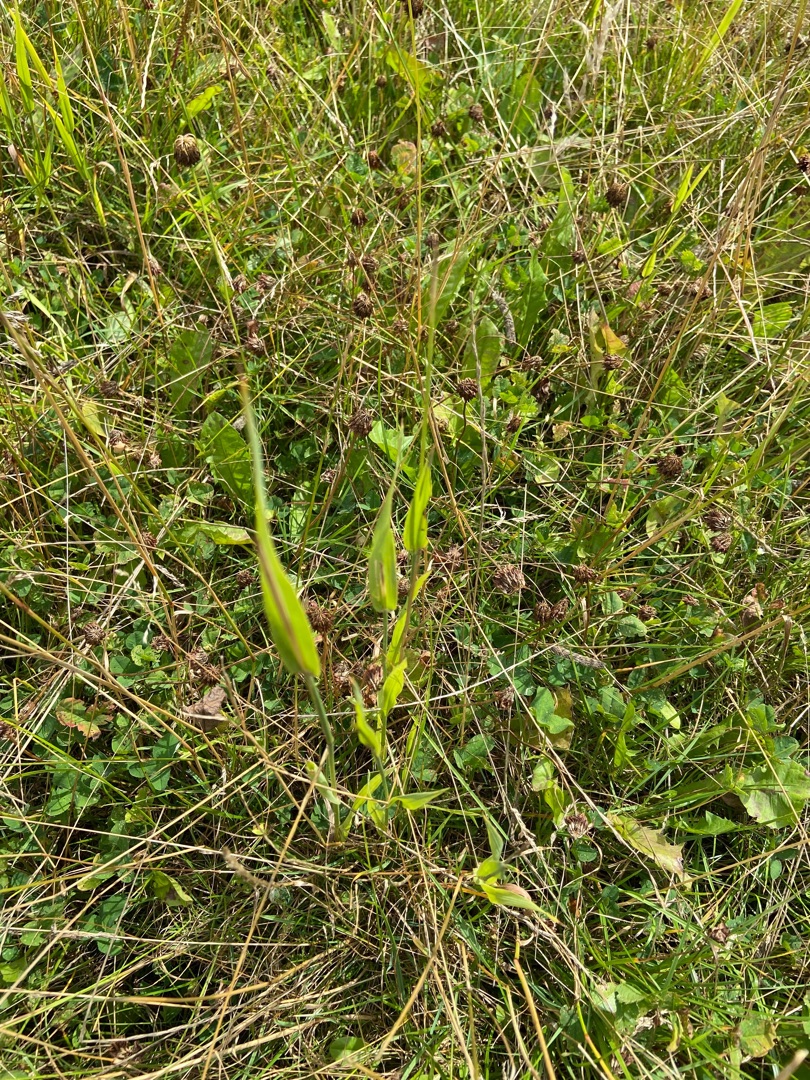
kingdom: Plantae
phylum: Tracheophyta
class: Liliopsida
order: Poales
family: Poaceae
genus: Phragmites
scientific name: Phragmites australis
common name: Tagrør
